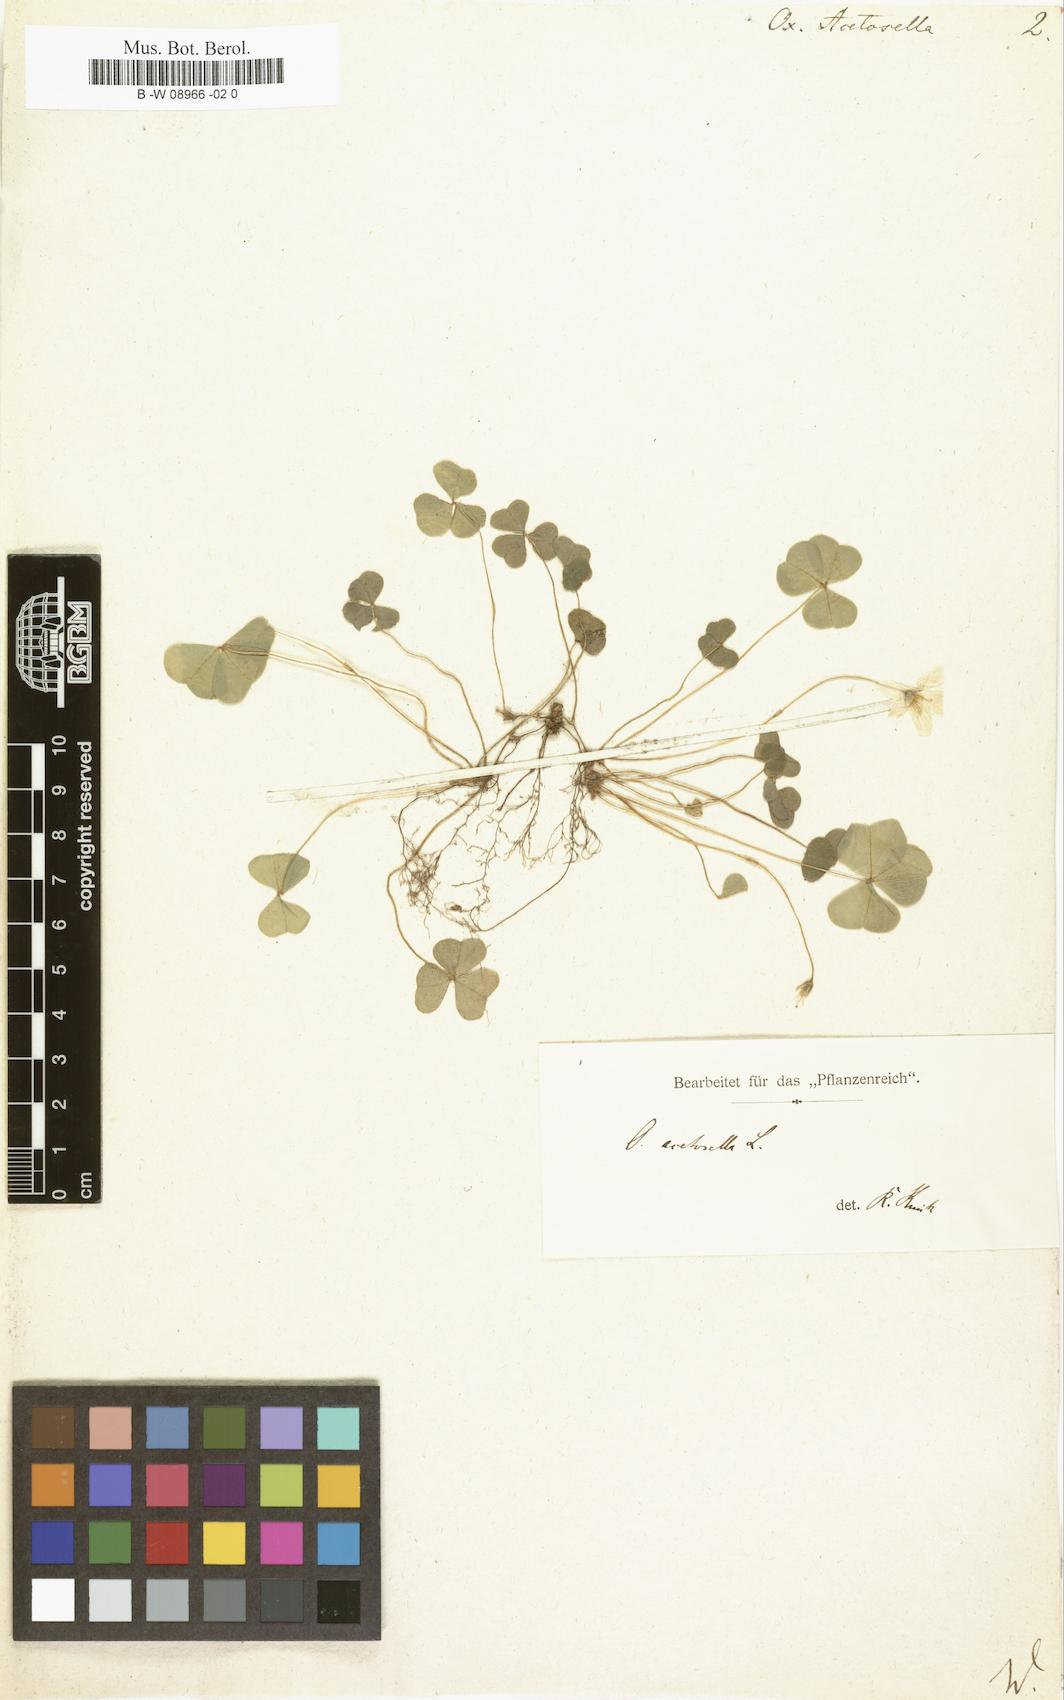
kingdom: Plantae
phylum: Tracheophyta
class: Magnoliopsida
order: Oxalidales
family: Oxalidaceae
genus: Oxalis
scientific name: Oxalis acetosella
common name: Wood-sorrel
